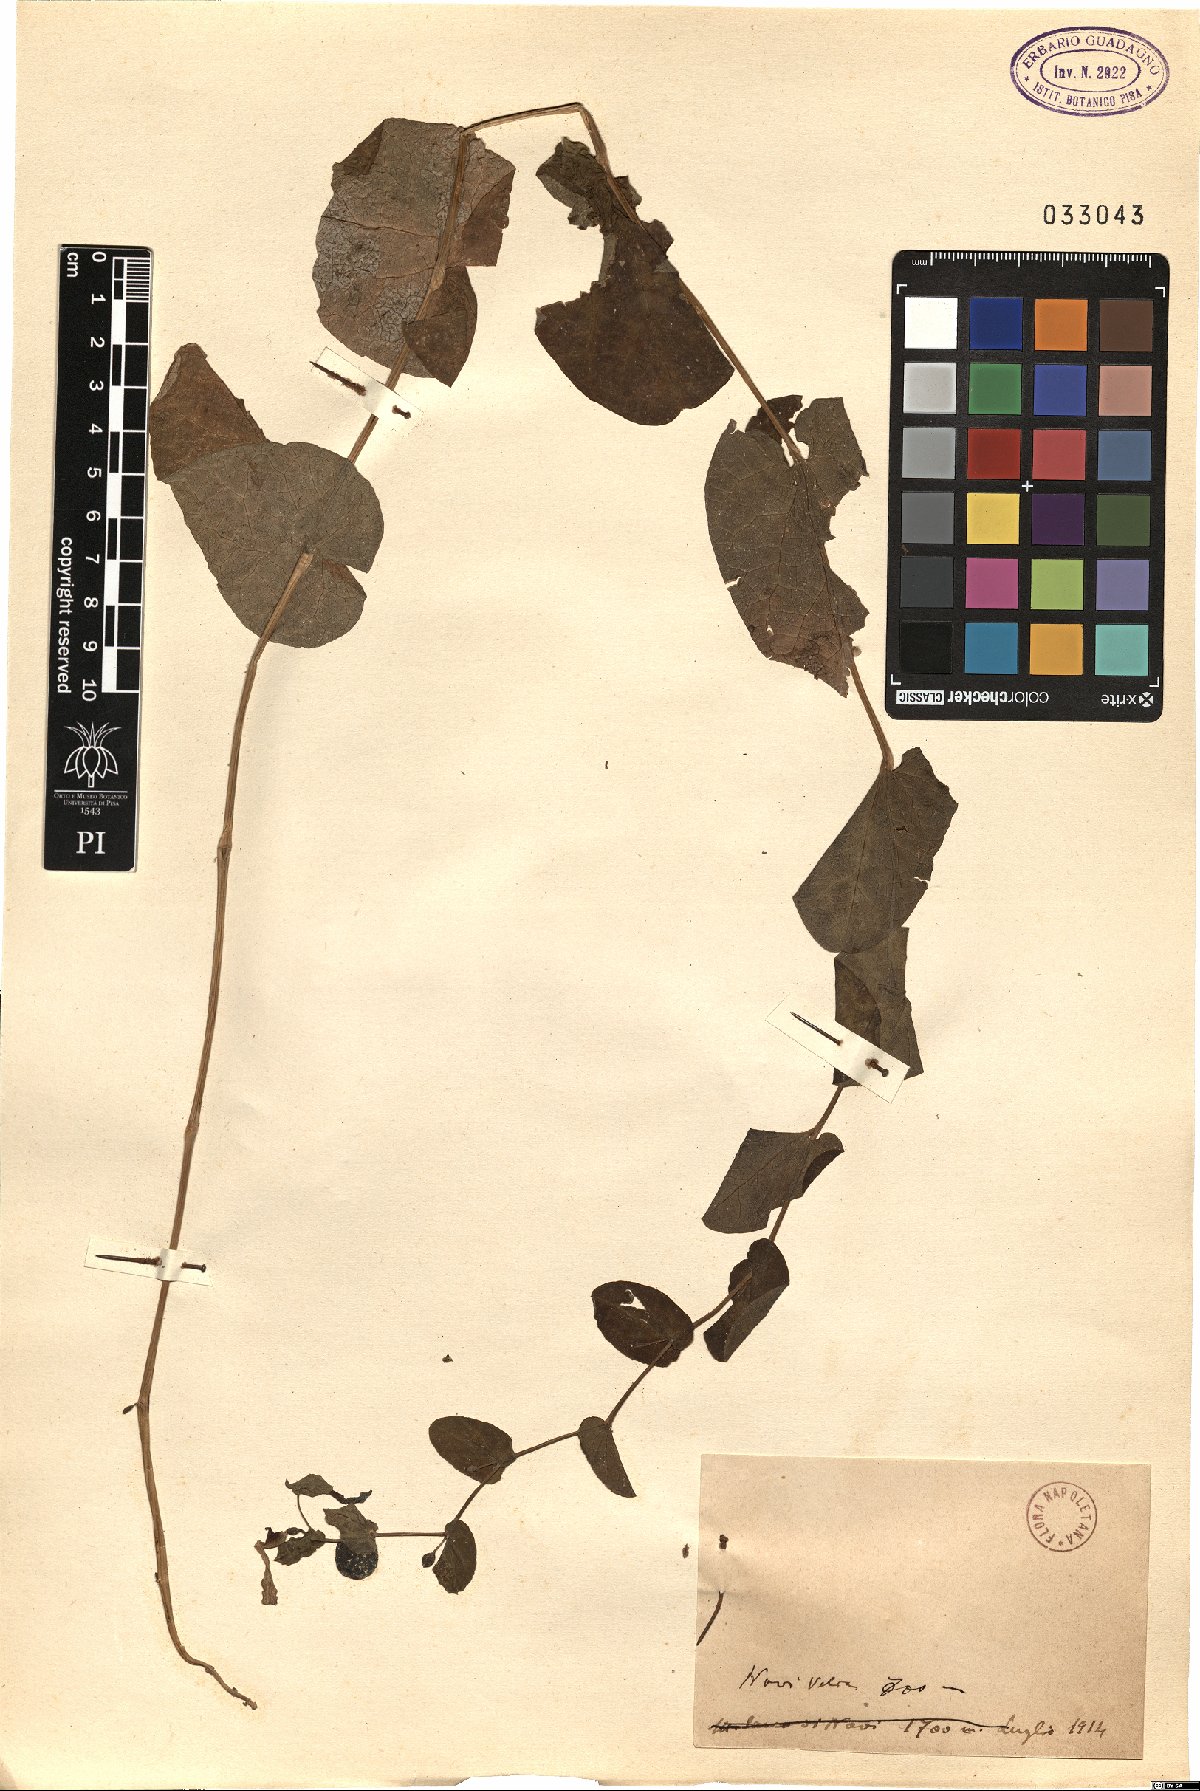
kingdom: Plantae
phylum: Tracheophyta
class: Magnoliopsida
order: Piperales
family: Aristolochiaceae
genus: Aristolochia
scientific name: Aristolochia
